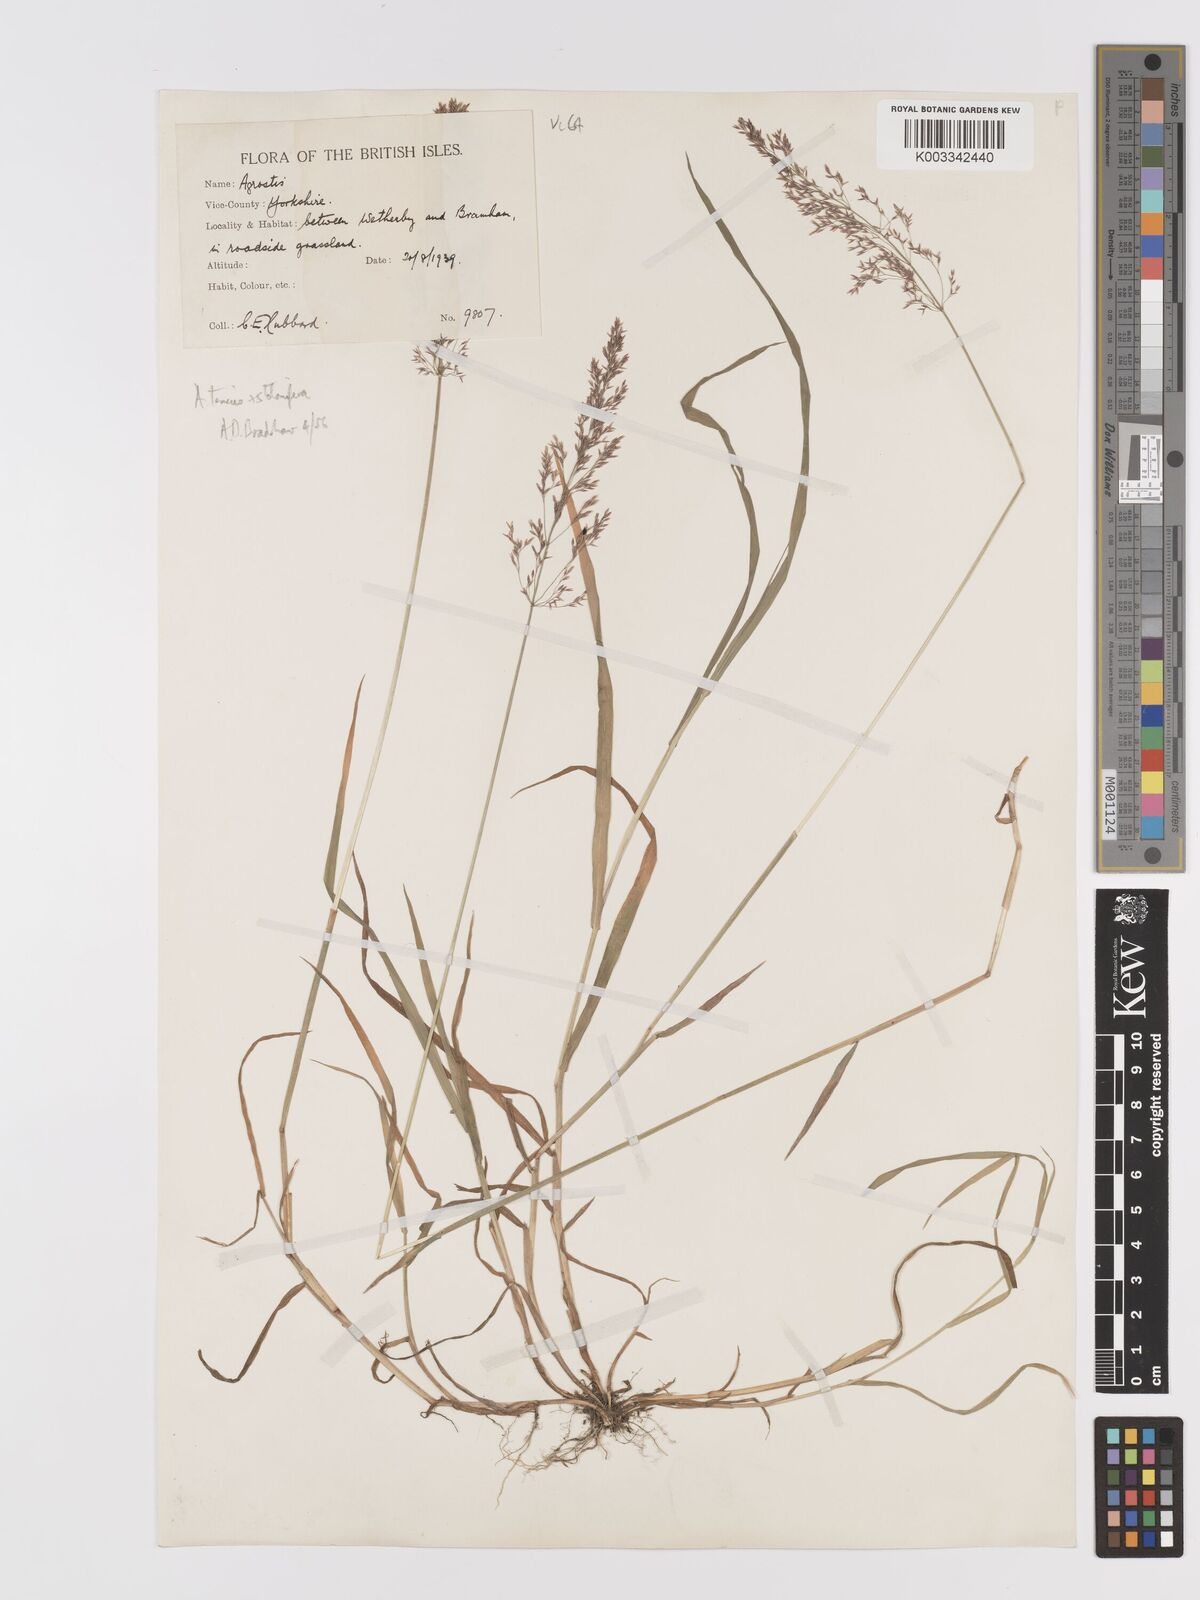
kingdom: Plantae
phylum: Tracheophyta
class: Liliopsida
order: Poales
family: Poaceae
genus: Agrostis
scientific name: Agrostis capillaris
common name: Colonial bentgrass
